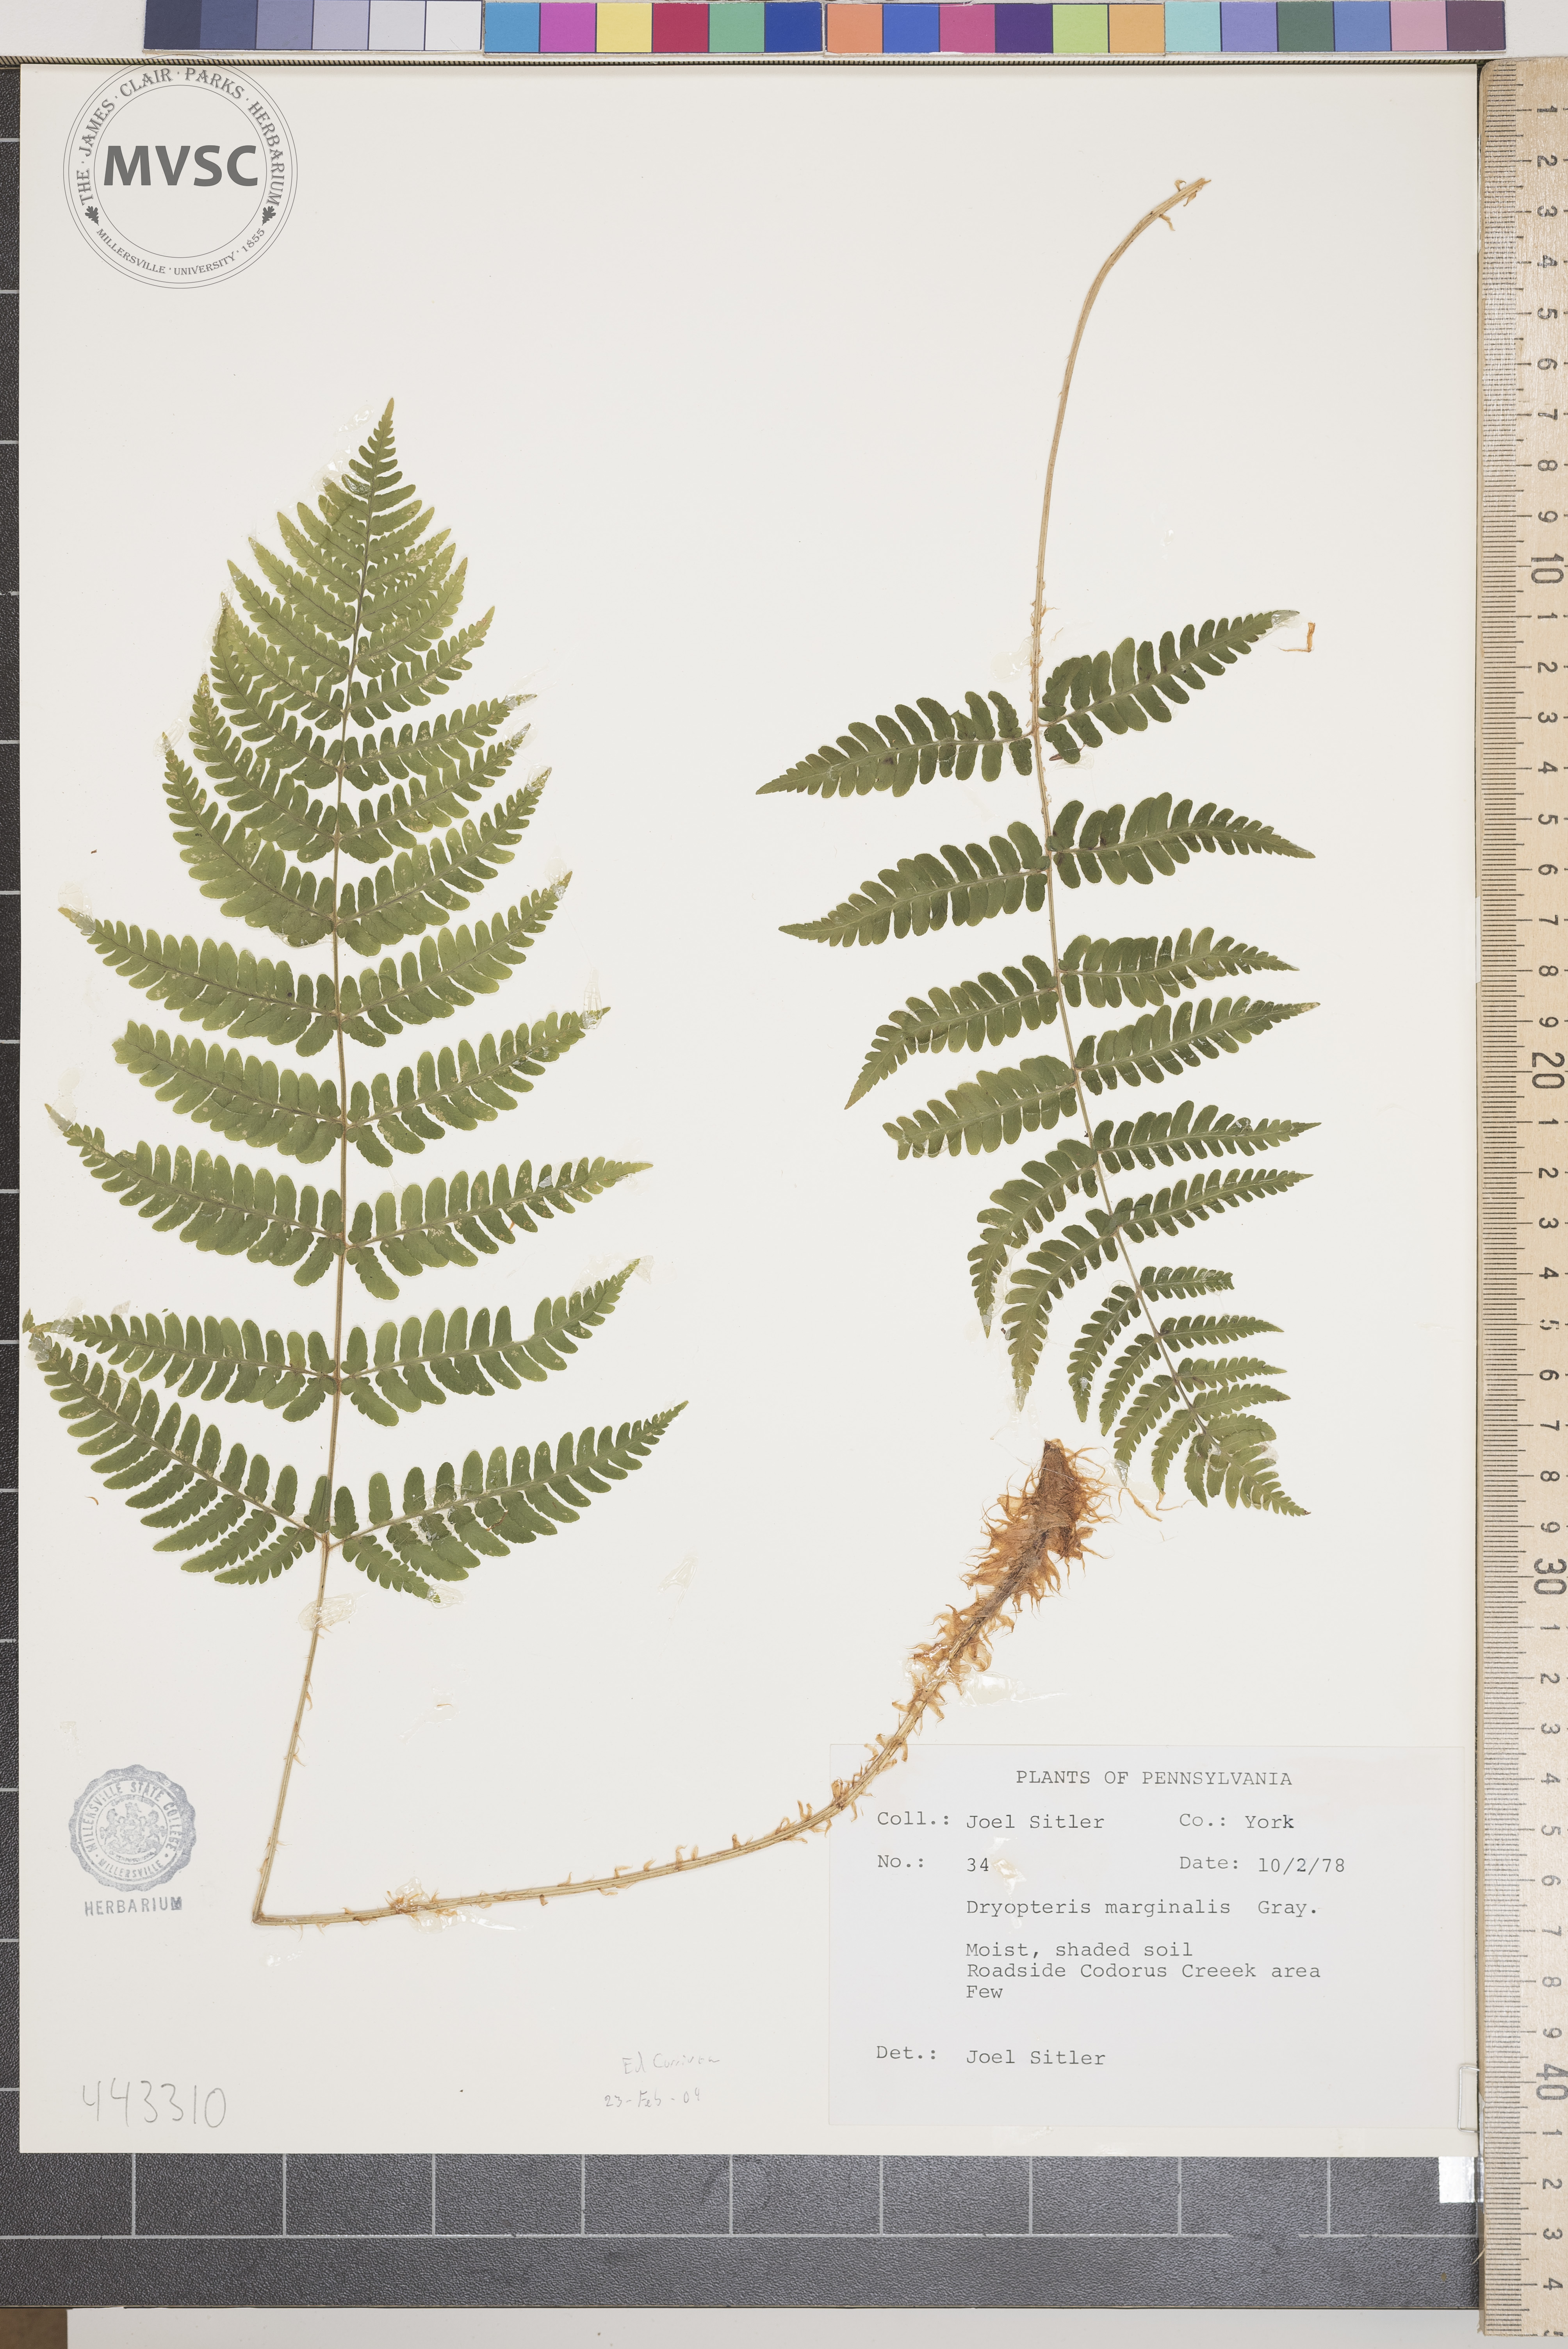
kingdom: Plantae
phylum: Tracheophyta
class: Polypodiopsida
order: Polypodiales
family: Dryopteridaceae
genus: Dryopteris
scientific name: Dryopteris marginalis
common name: Marginal wood fern
